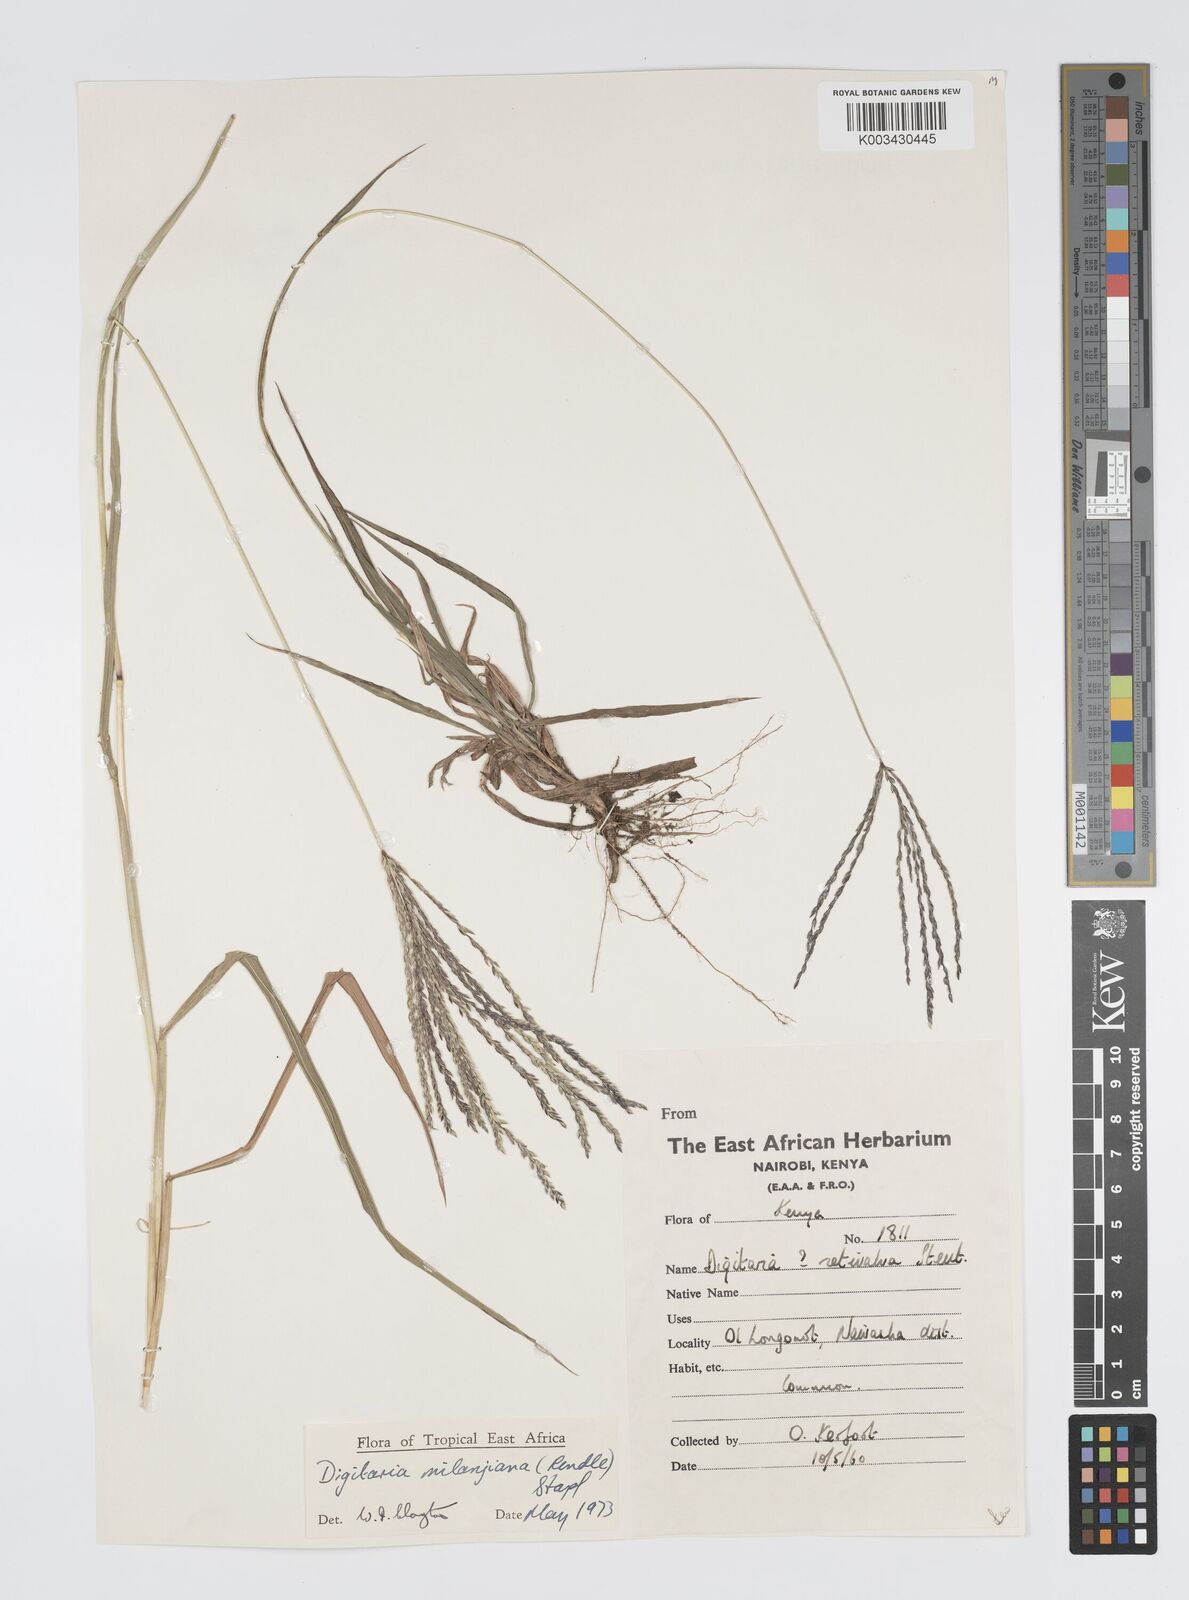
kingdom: Plantae
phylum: Tracheophyta
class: Liliopsida
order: Poales
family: Poaceae
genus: Digitaria
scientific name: Digitaria milanjiana
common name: Madagascar crabgrass
